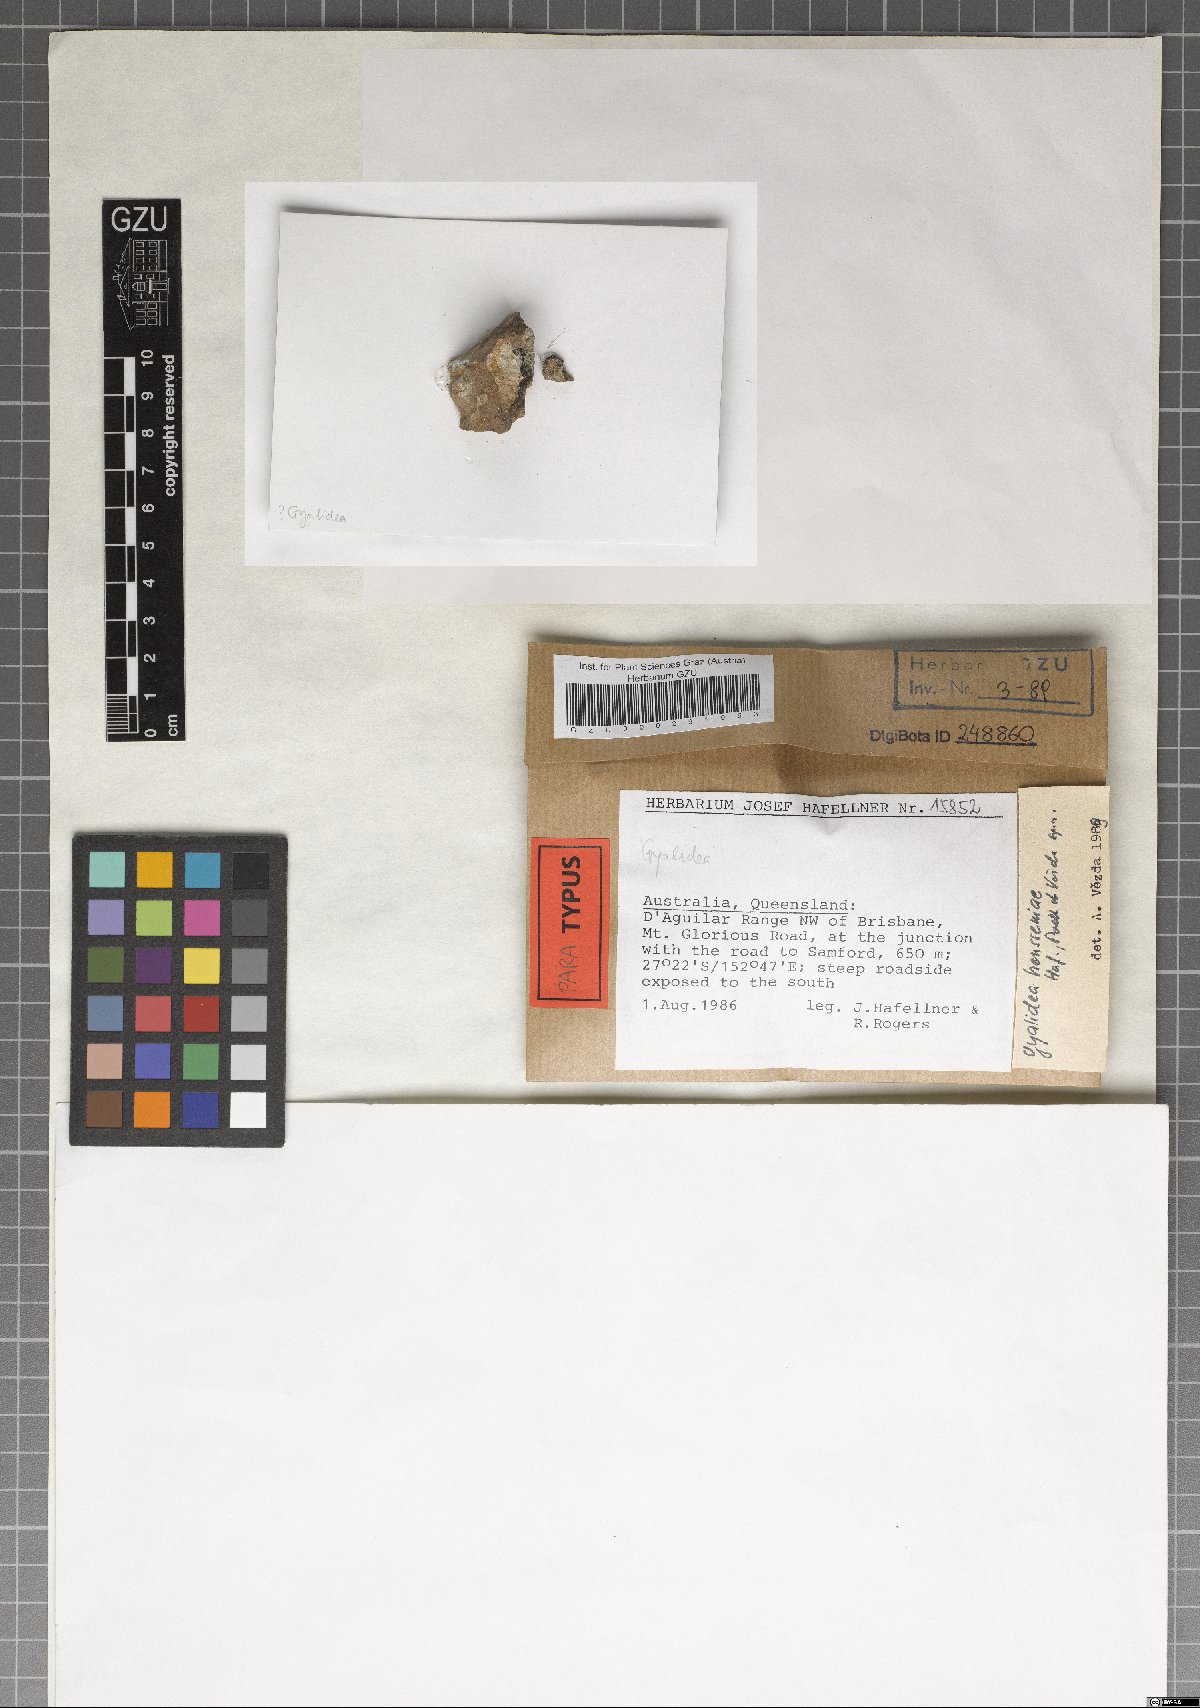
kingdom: Fungi
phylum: Ascomycota
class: Lecanoromycetes
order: Ostropales
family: Gomphillaceae
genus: Gyalidea
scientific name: Gyalidea hensseniae
